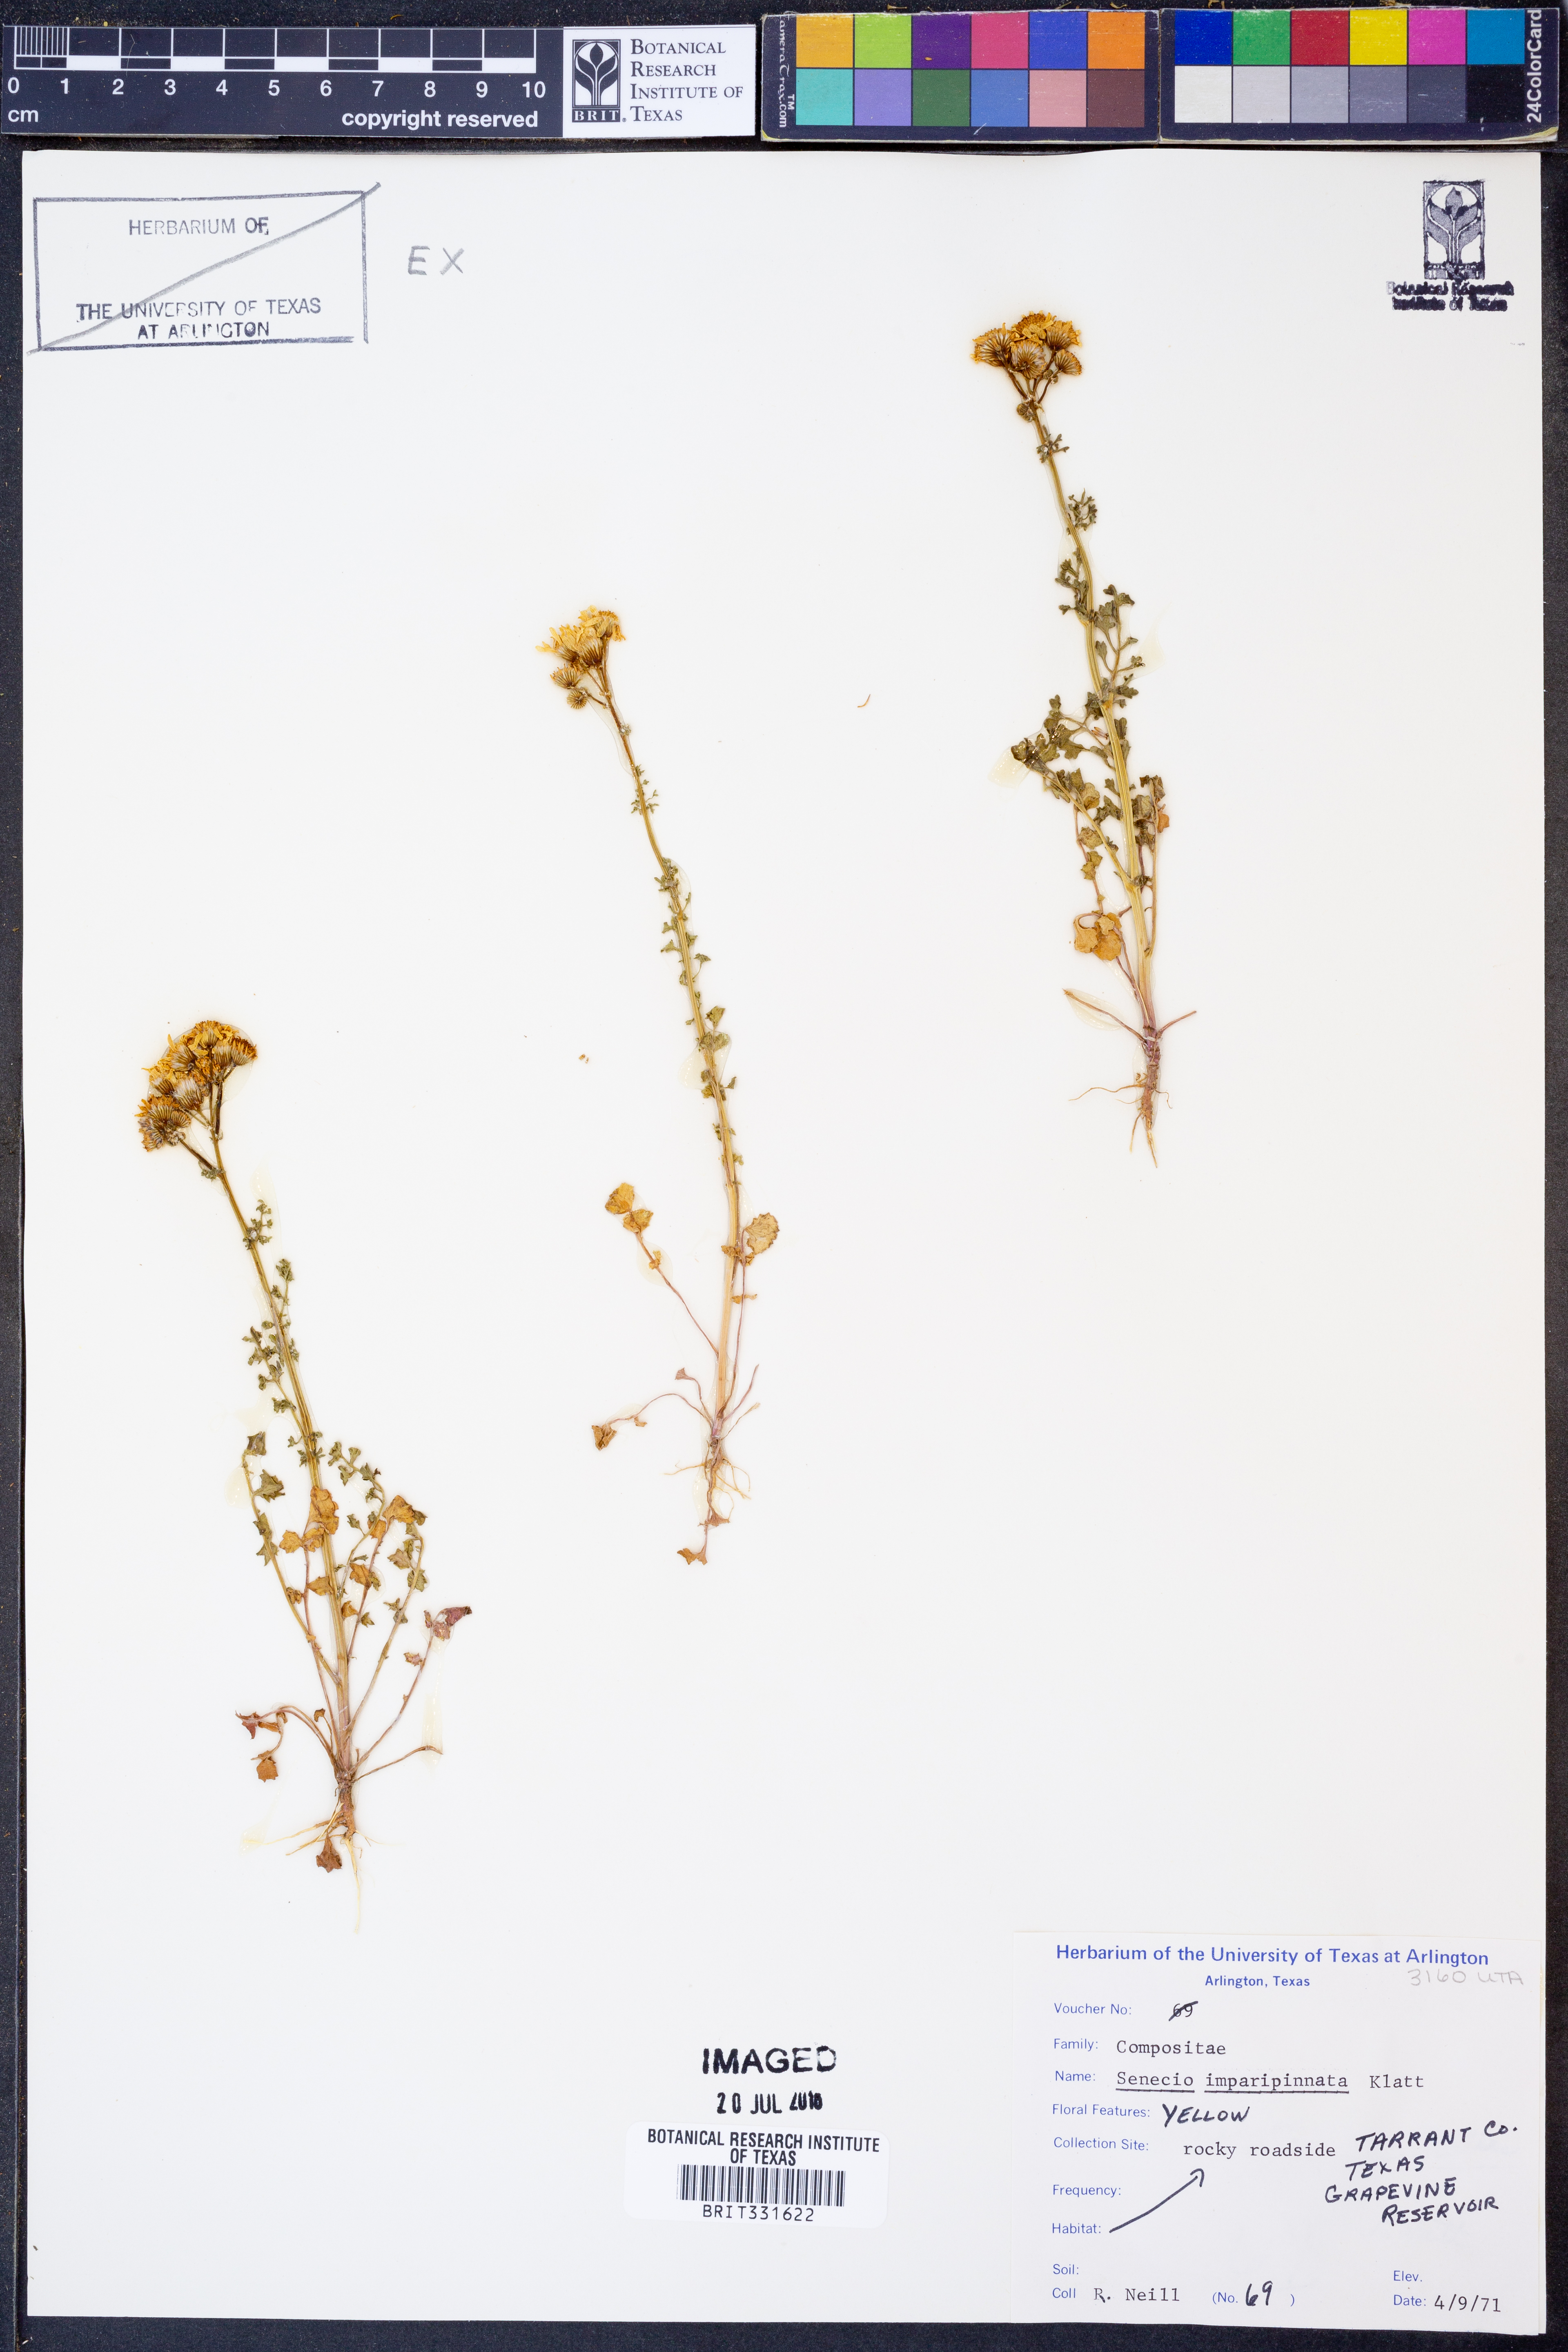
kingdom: Plantae
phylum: Tracheophyta
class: Magnoliopsida
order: Asterales
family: Asteraceae
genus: Packera
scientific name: Packera tampicana
